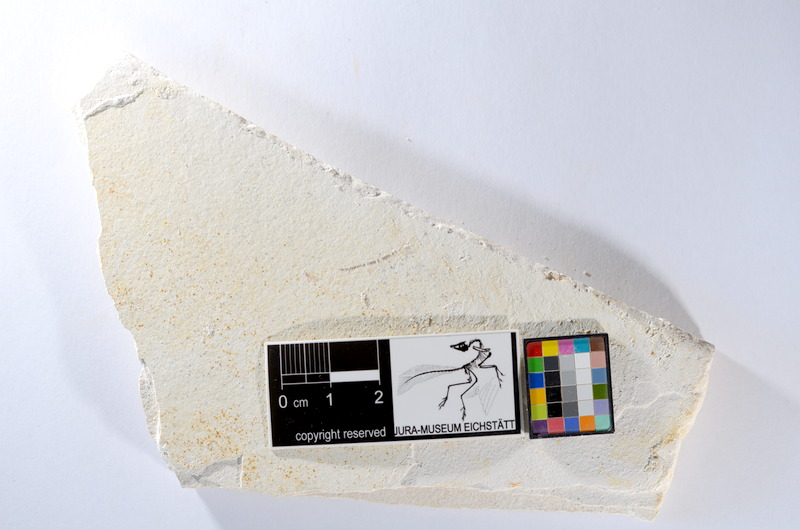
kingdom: Animalia
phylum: Chordata
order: Salmoniformes
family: Orthogonikleithridae
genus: Orthogonikleithrus
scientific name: Orthogonikleithrus hoelli
